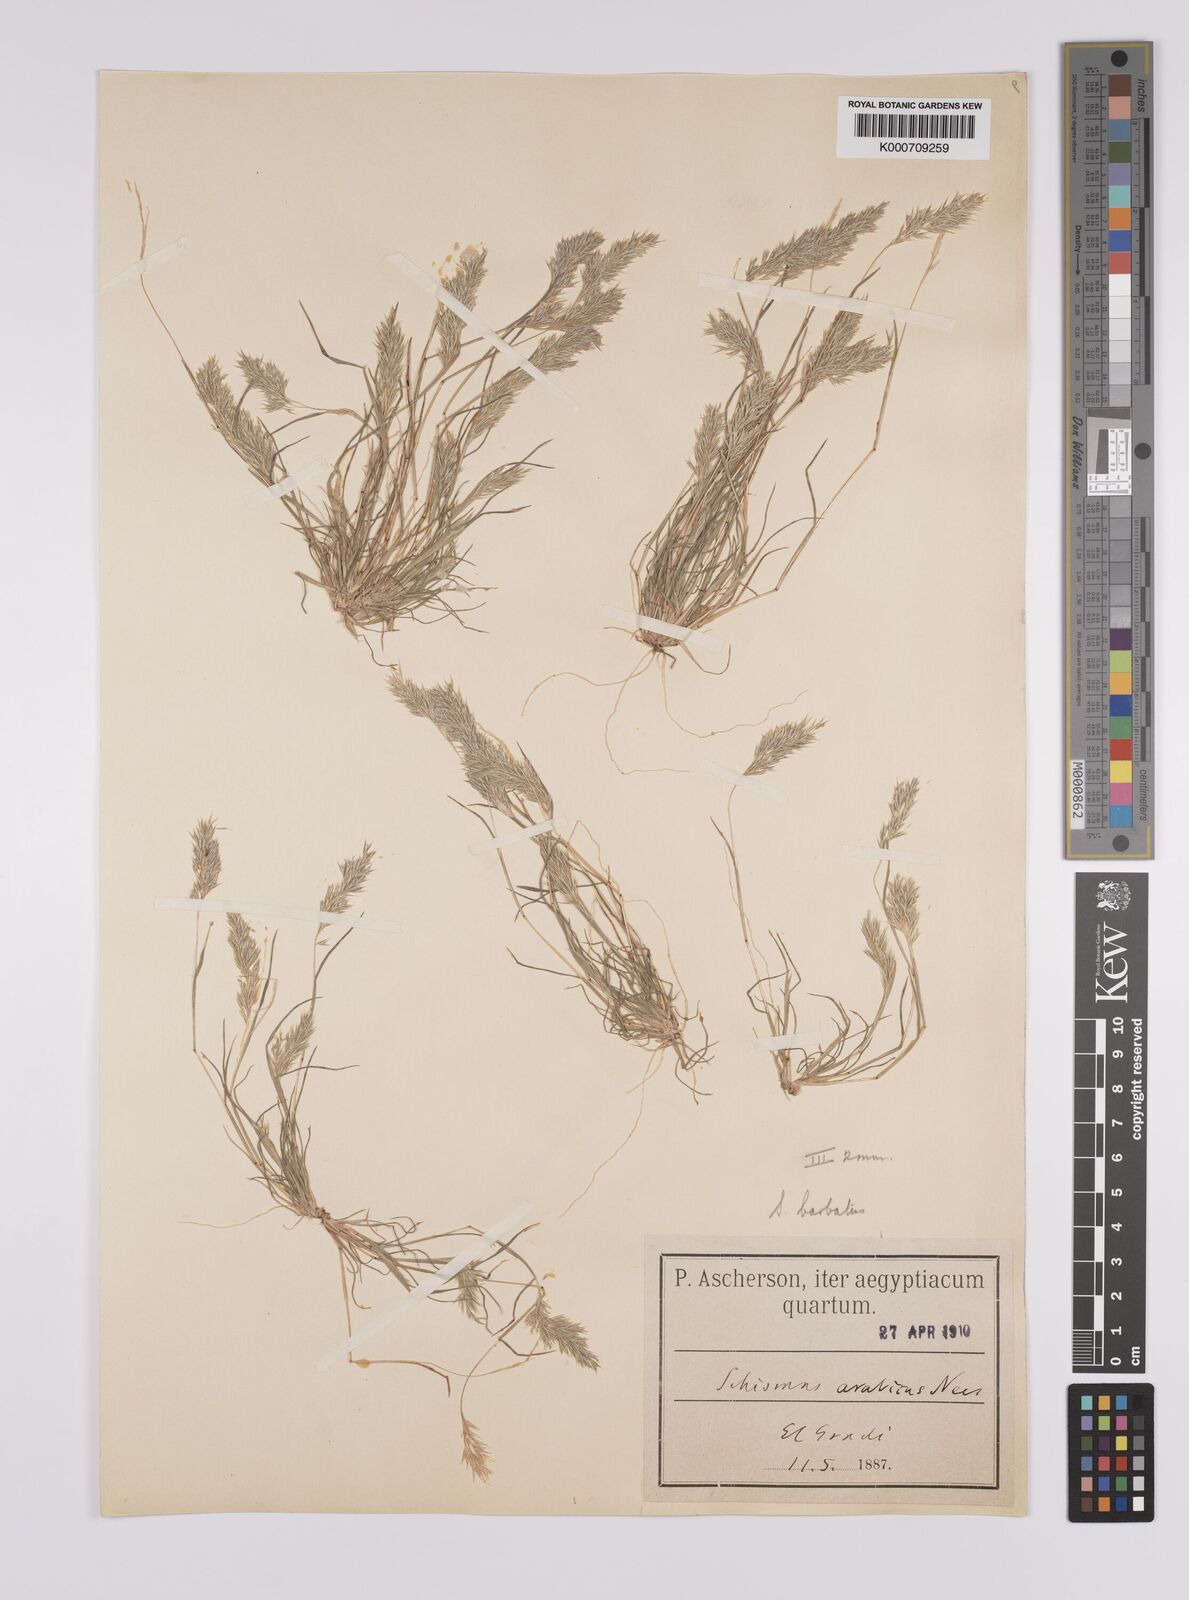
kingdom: Plantae
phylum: Tracheophyta
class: Liliopsida
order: Poales
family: Poaceae
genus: Schismus
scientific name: Schismus barbatus
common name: Kelch-grass
